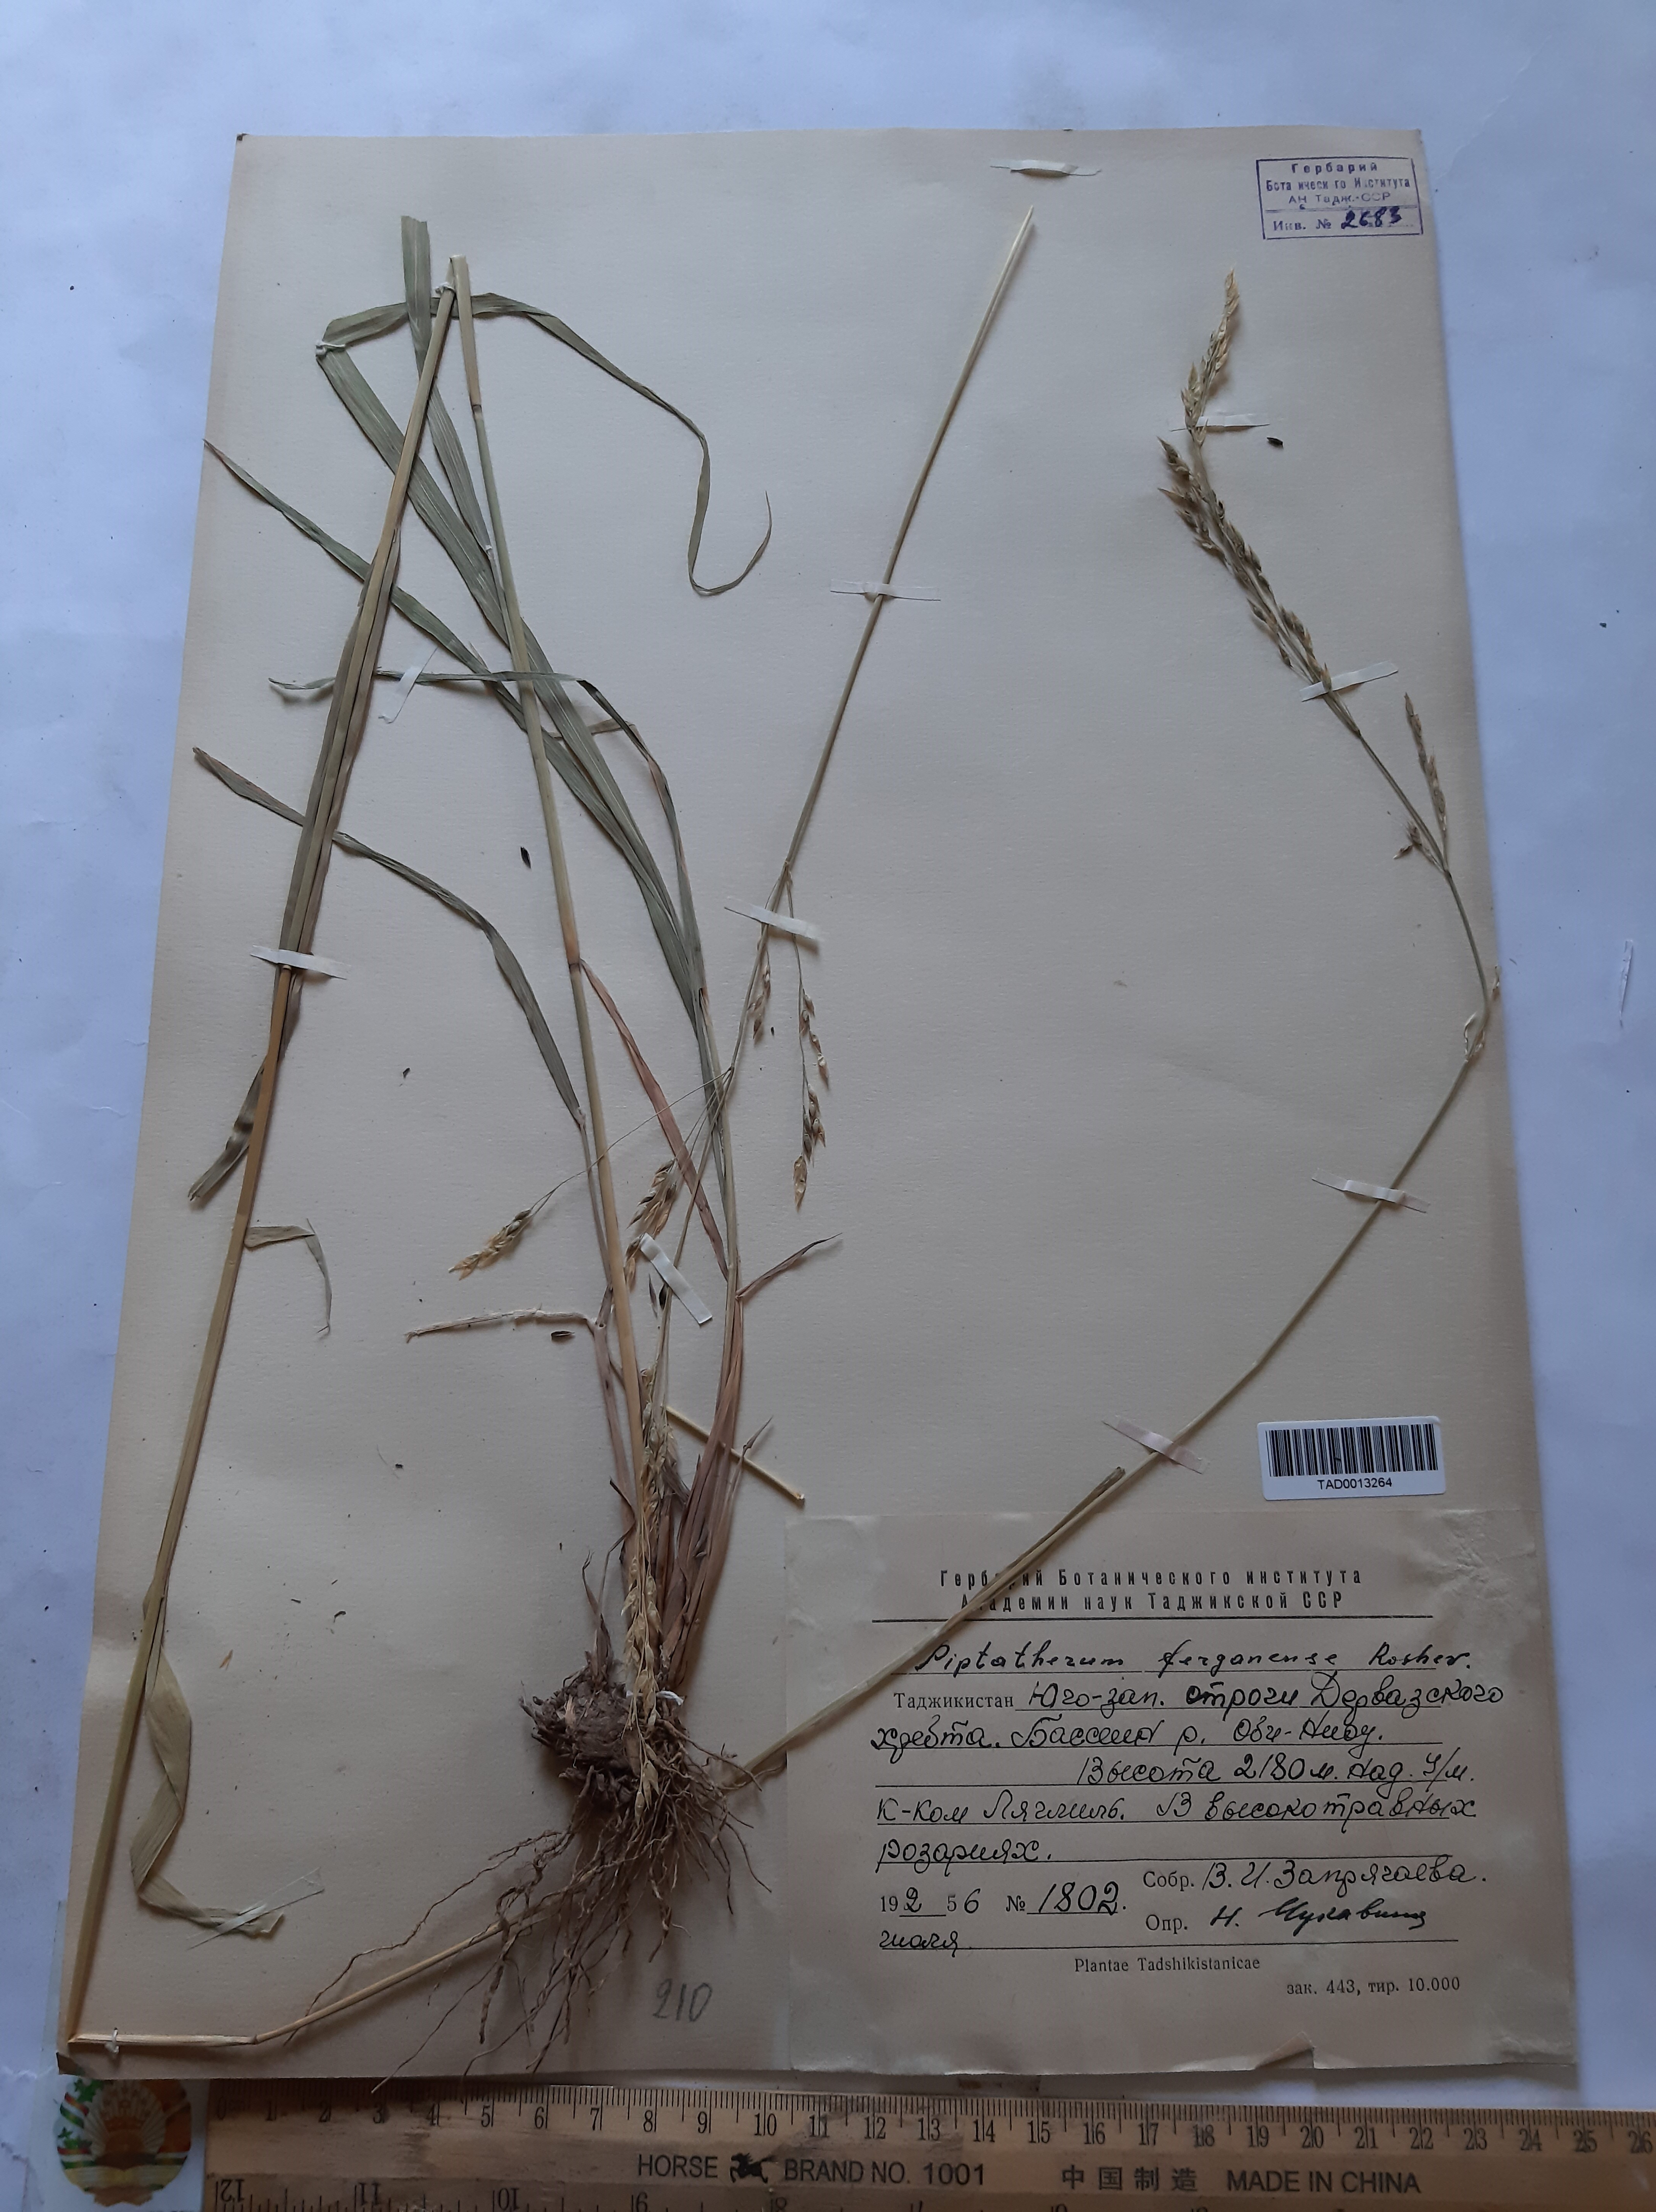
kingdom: Plantae
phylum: Tracheophyta
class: Liliopsida
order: Poales
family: Poaceae
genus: Piptatherum
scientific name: Piptatherum ferganense
